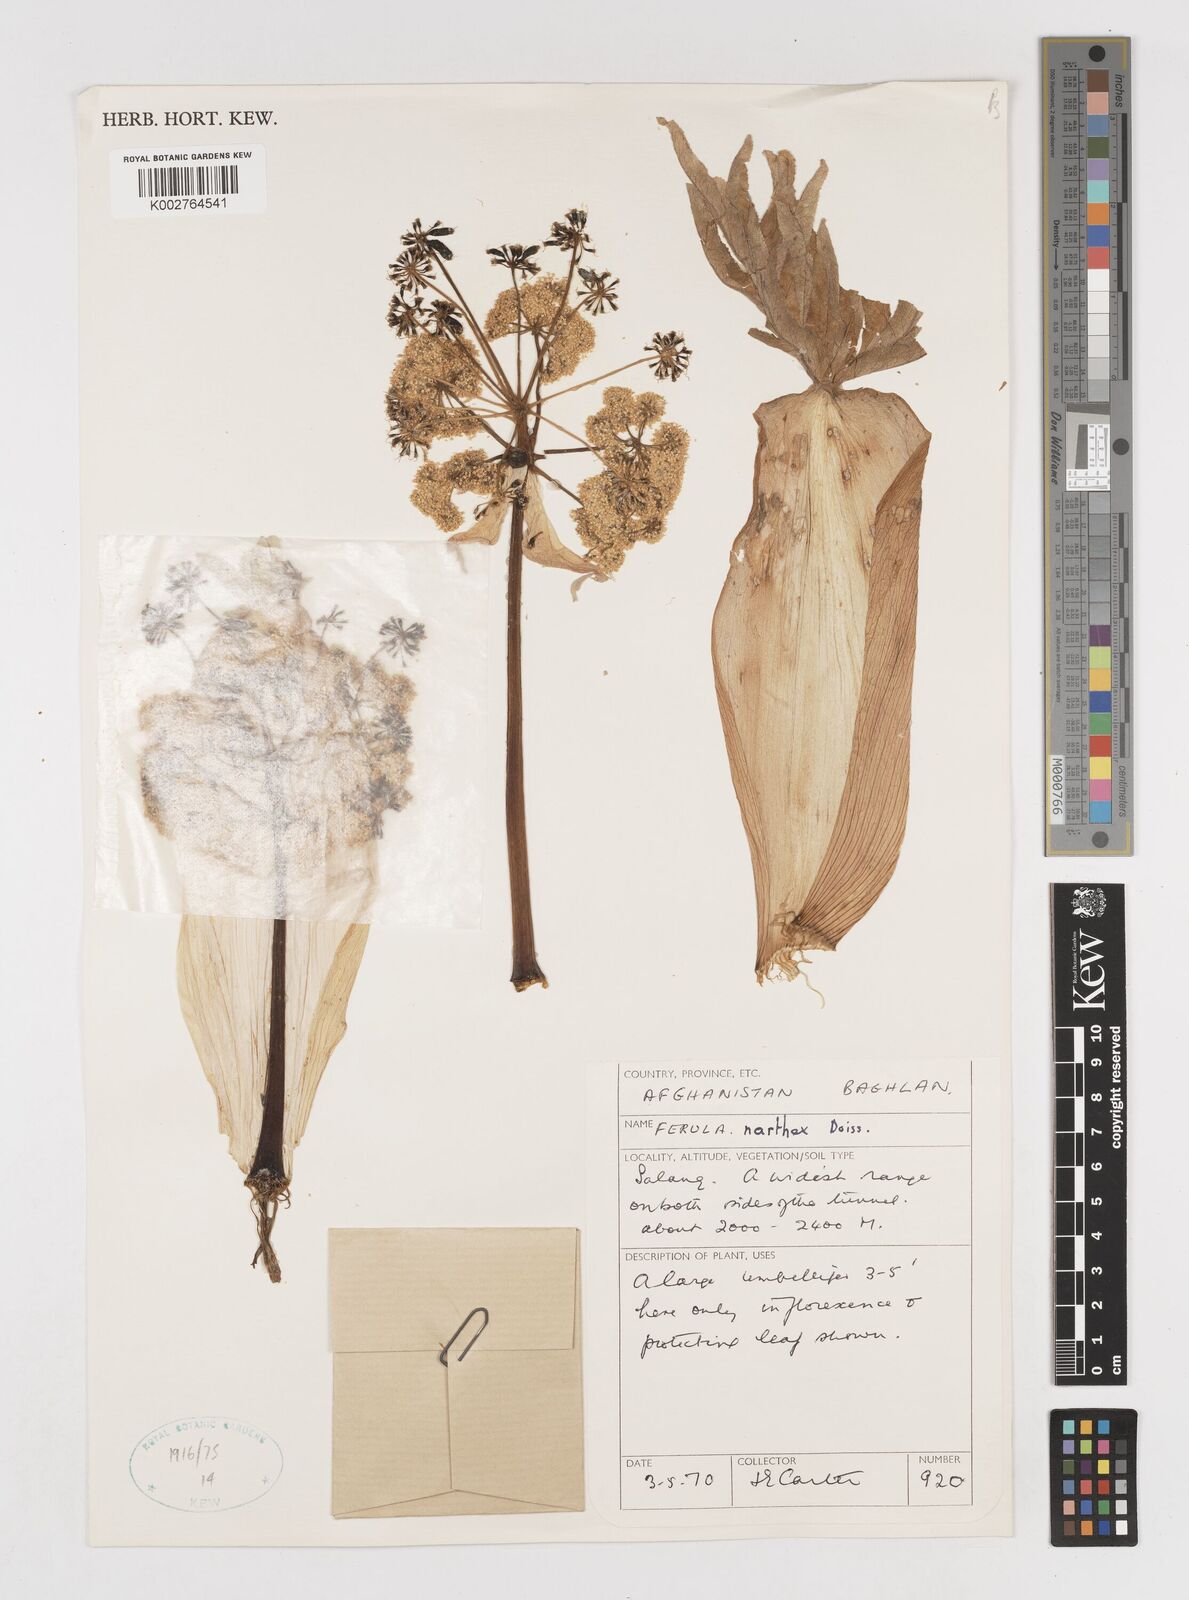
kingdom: Plantae
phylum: Tracheophyta
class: Magnoliopsida
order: Apiales
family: Apiaceae
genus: Ferula
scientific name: Ferula narthex
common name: Hing asafetida
